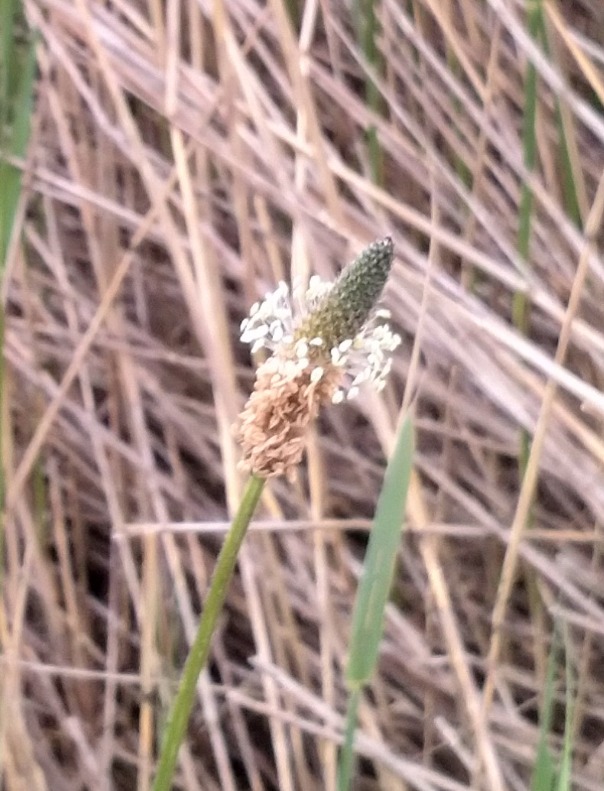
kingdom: Plantae
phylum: Tracheophyta
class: Magnoliopsida
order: Lamiales
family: Plantaginaceae
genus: Plantago
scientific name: Plantago lanceolata
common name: Lancet-vejbred
